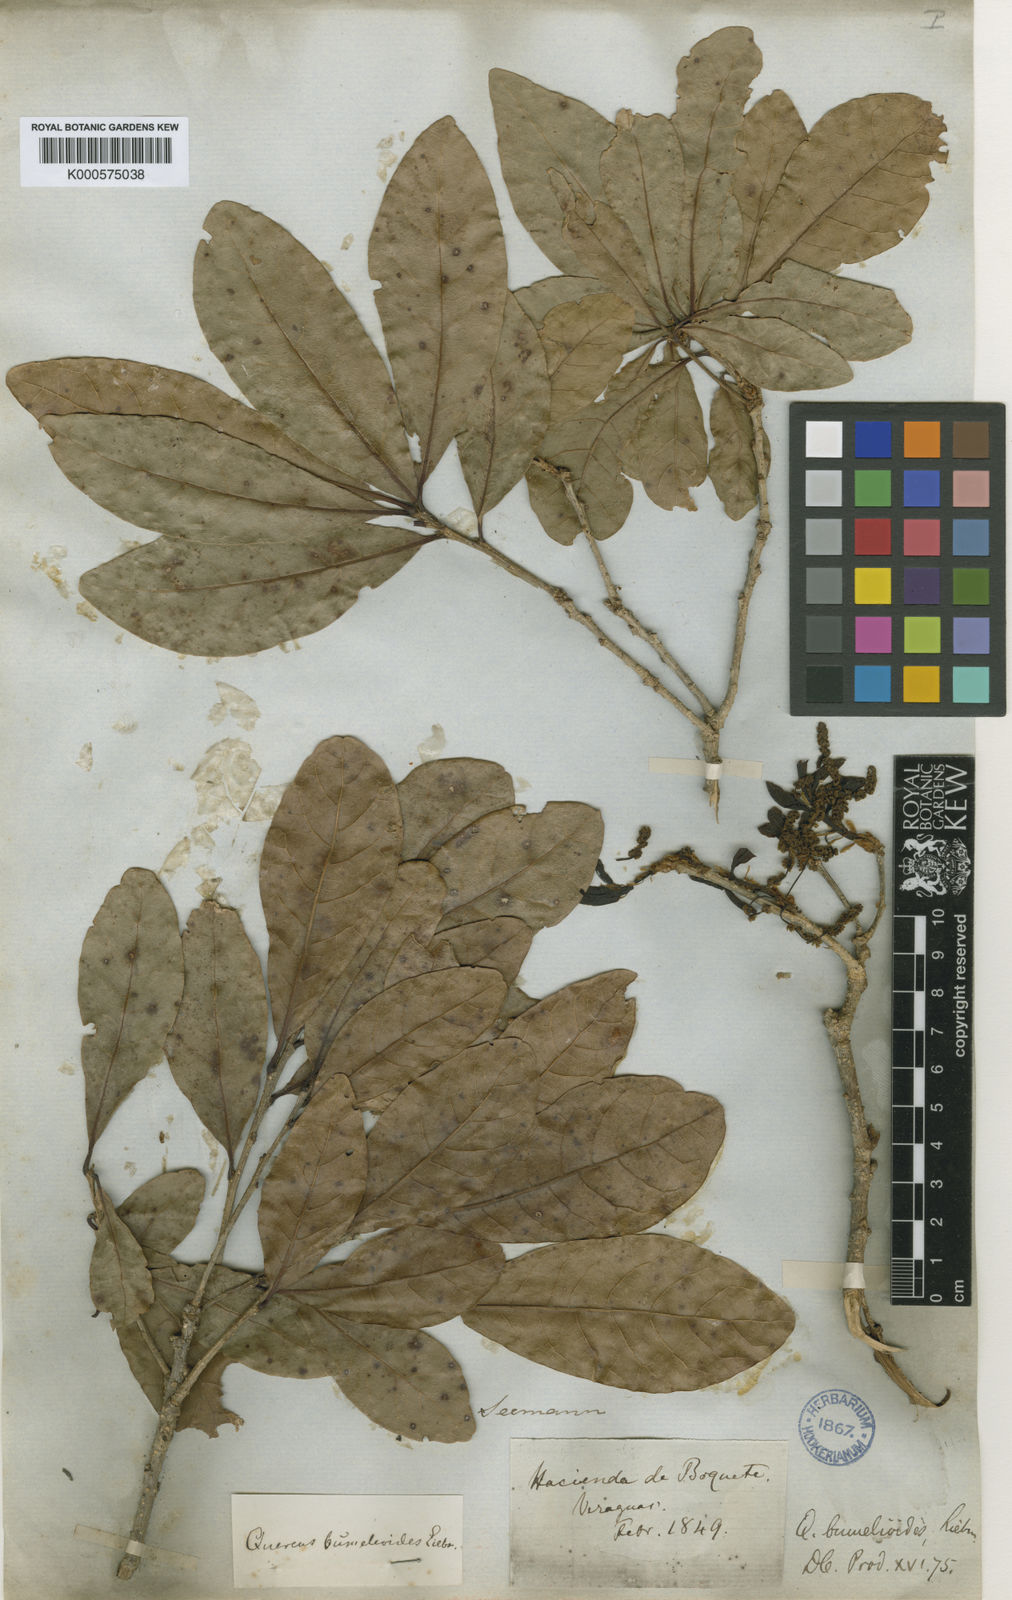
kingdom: Plantae
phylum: Tracheophyta
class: Magnoliopsida
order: Fagales
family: Fagaceae
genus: Quercus
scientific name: Quercus sapotifolia
